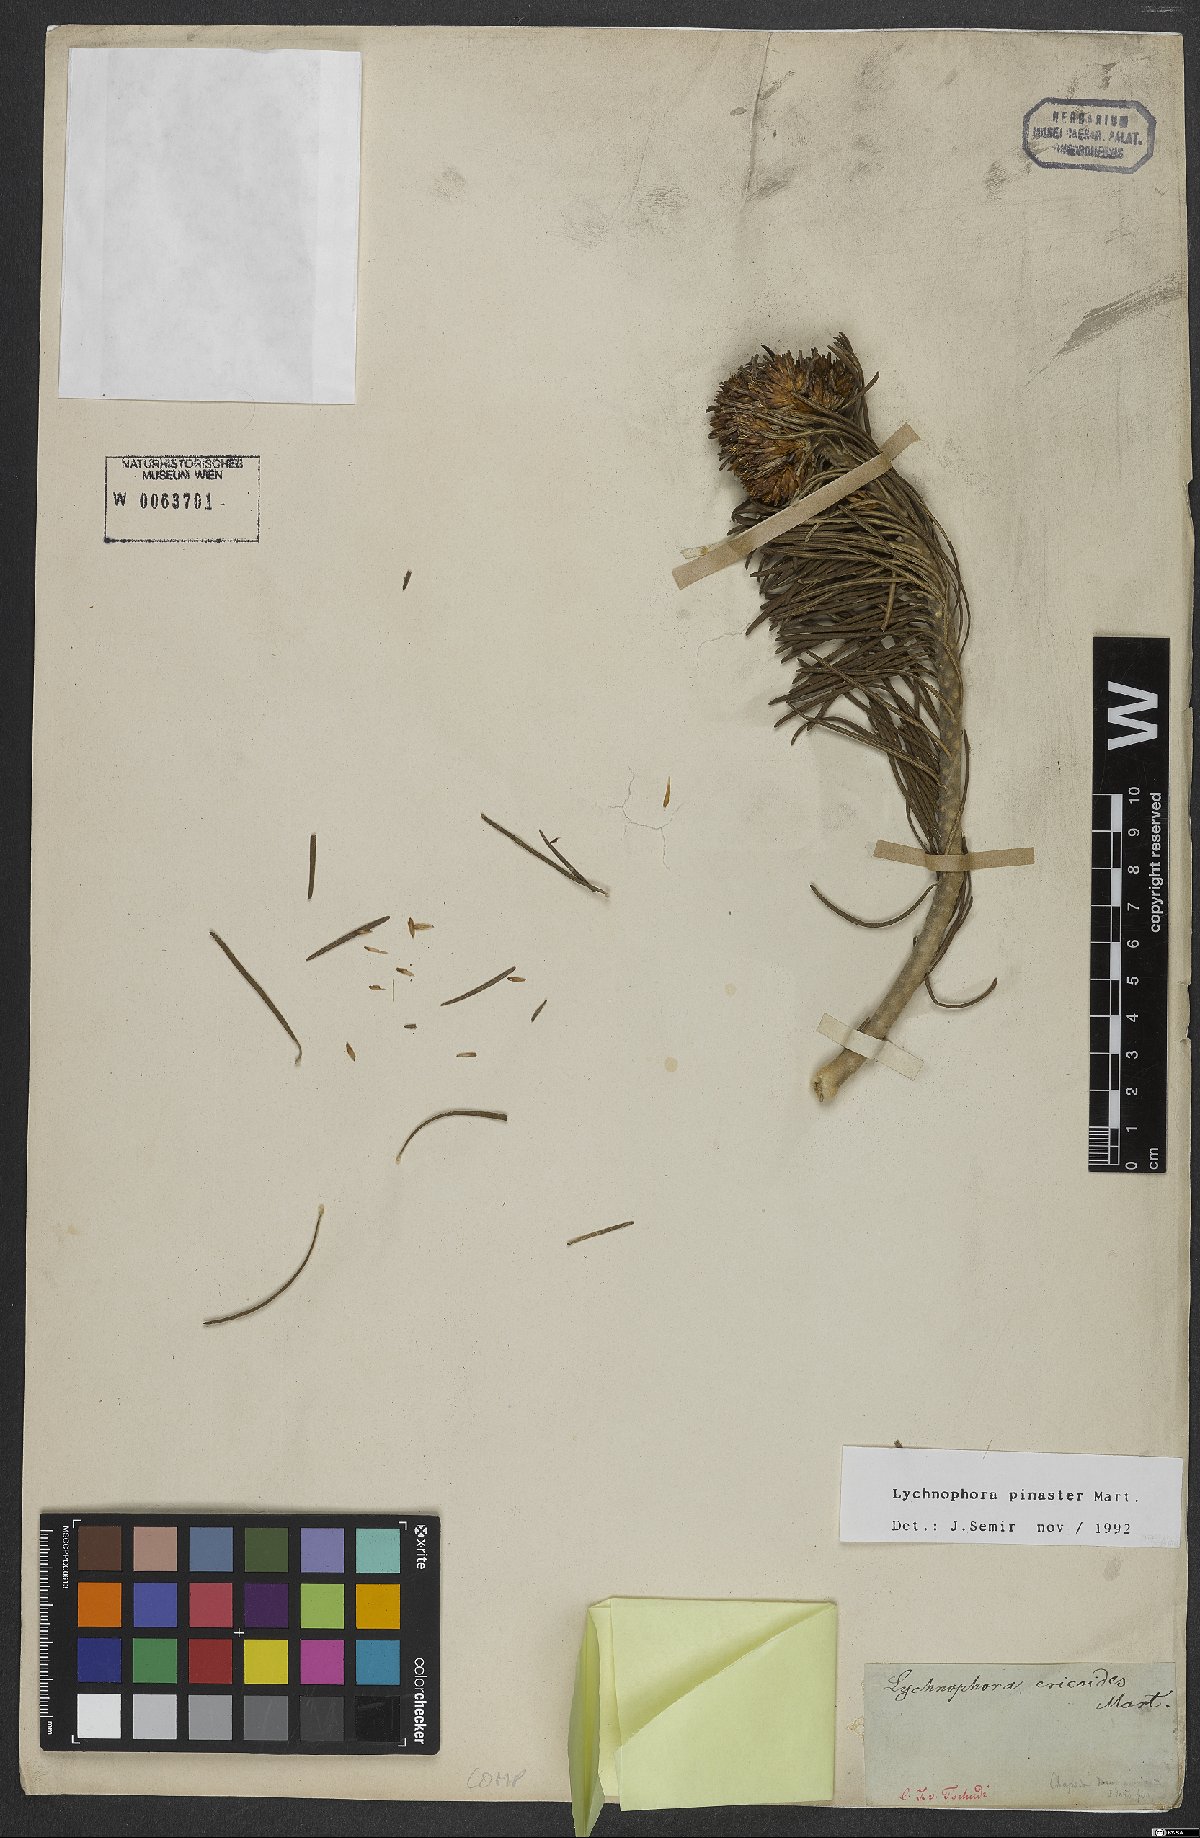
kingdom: Plantae
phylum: Tracheophyta
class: Magnoliopsida
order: Asterales
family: Asteraceae
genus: Lychnophora
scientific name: Lychnophora pinaster
